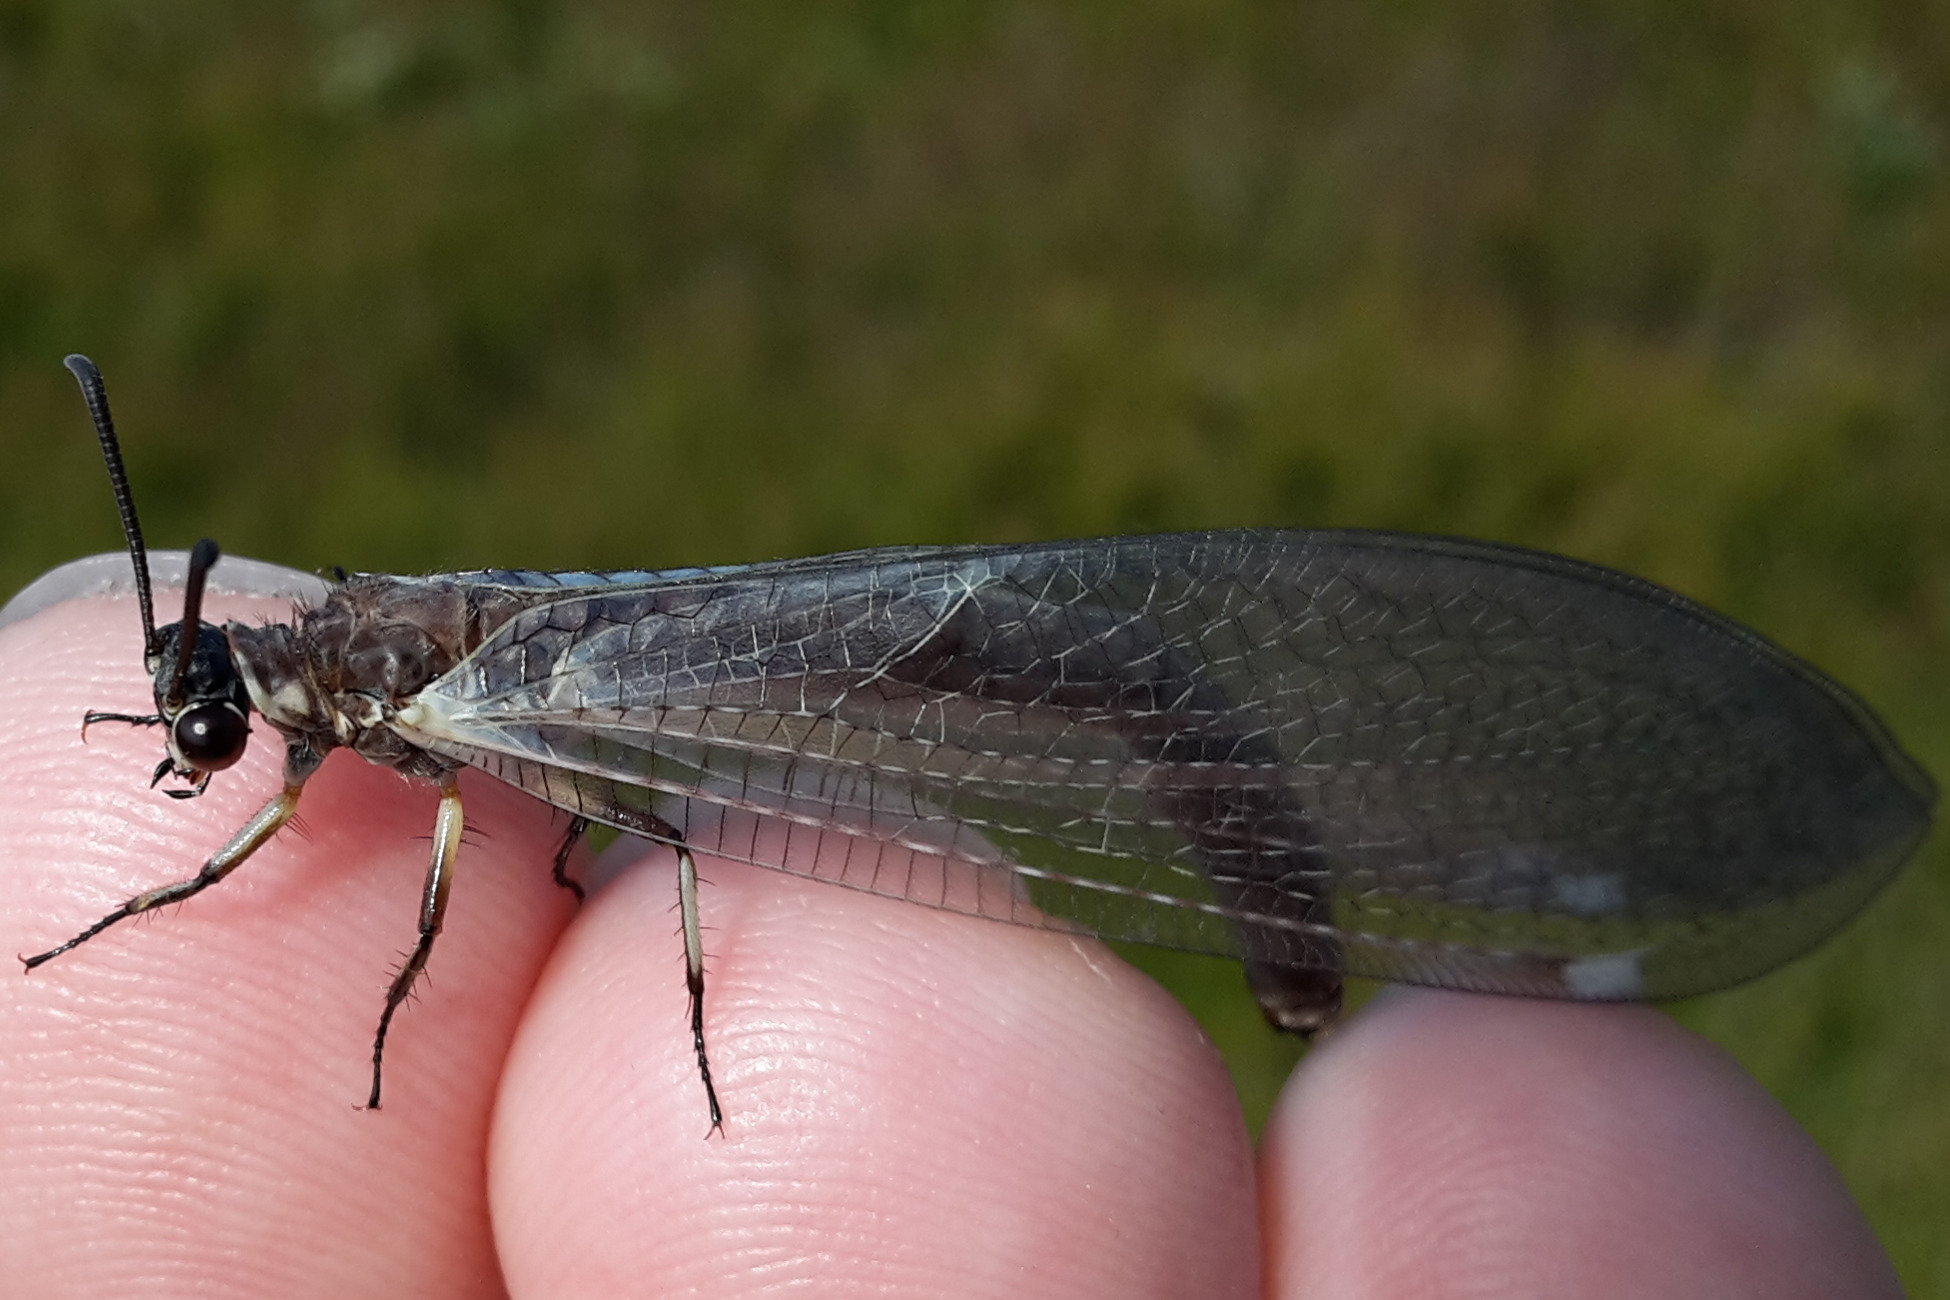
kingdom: Animalia
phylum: Arthropoda
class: Insecta
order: Neuroptera
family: Myrmeleontidae
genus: Myrmeleon
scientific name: Myrmeleon formicarius
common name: Stor myreløve
